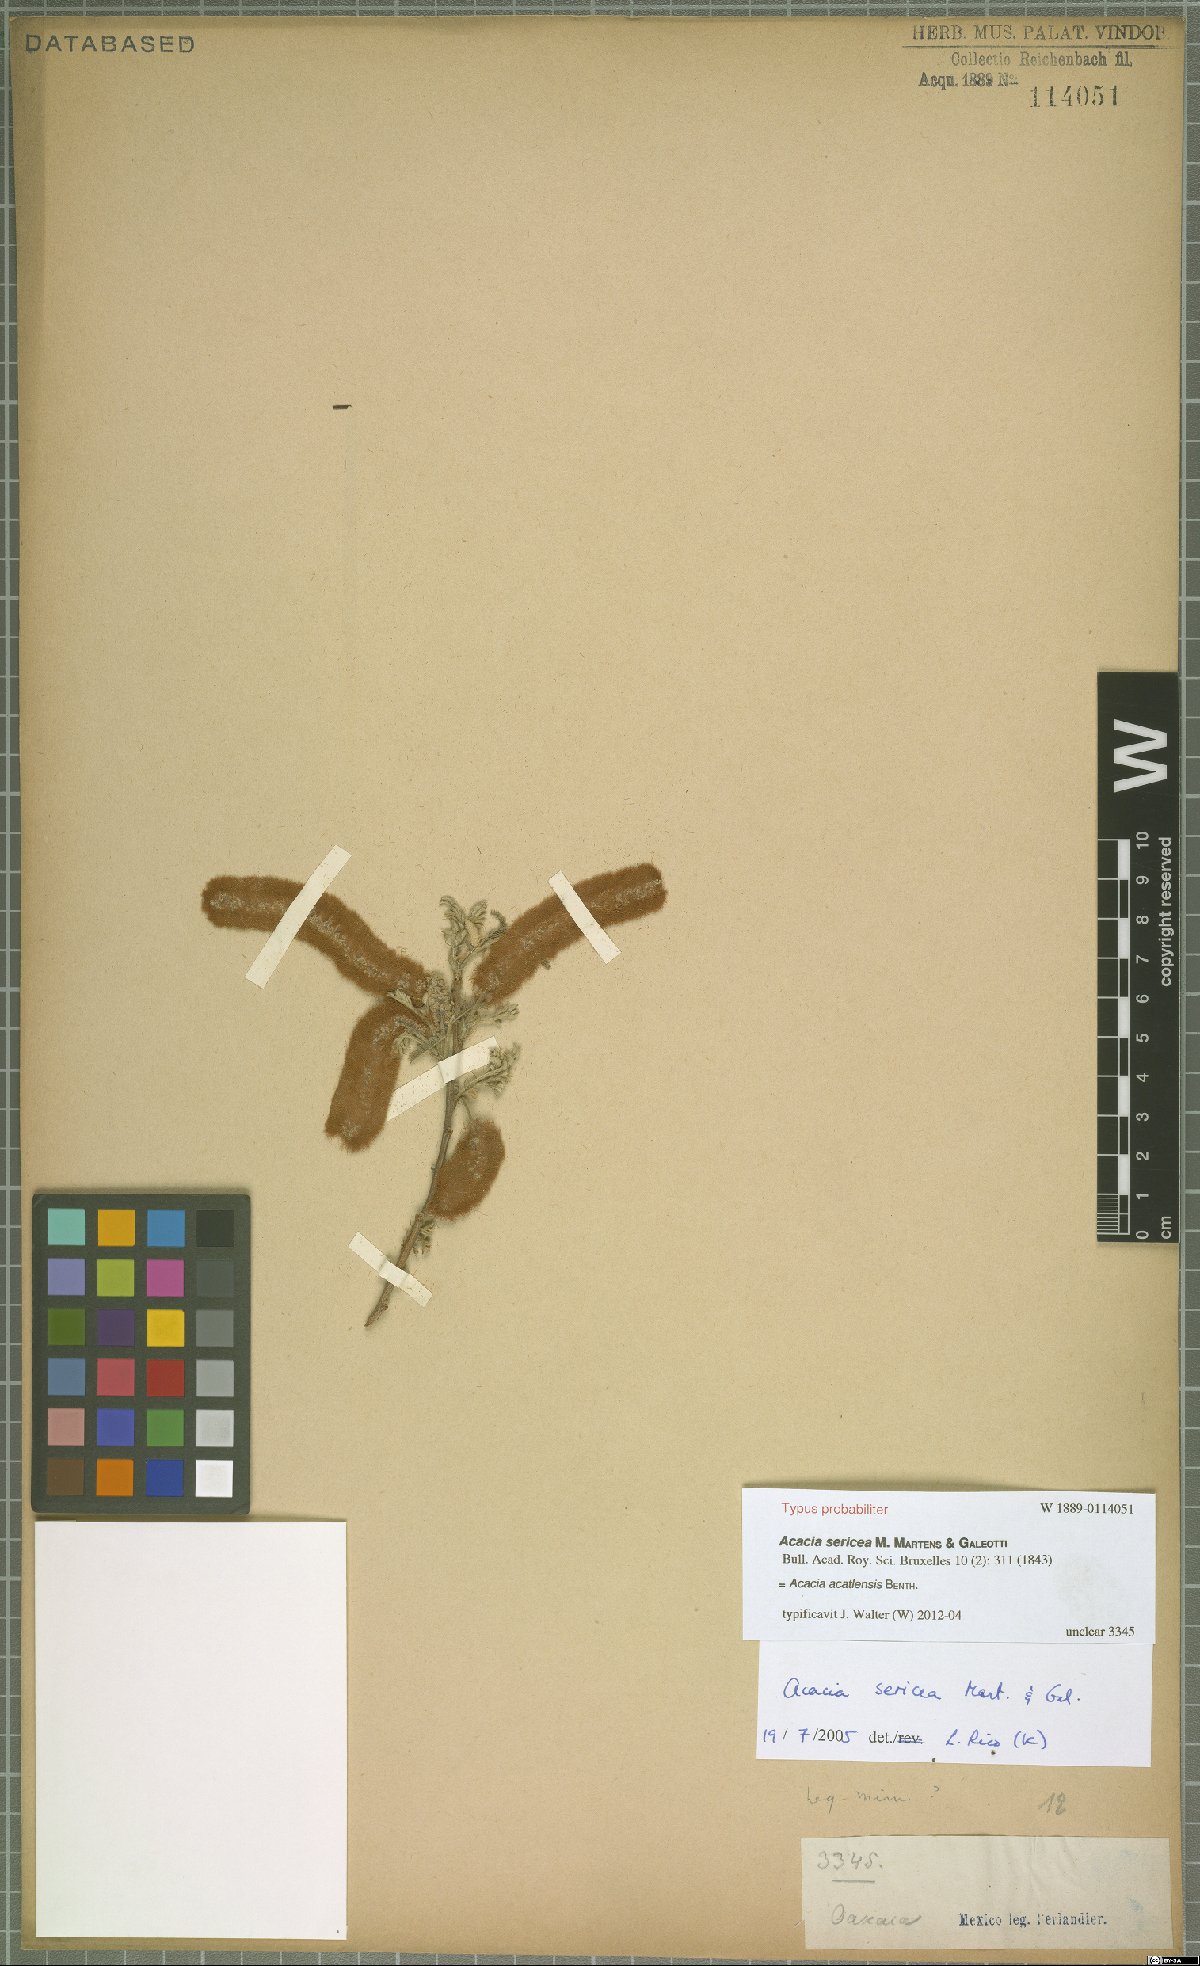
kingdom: Plantae
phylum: Tracheophyta
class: Magnoliopsida
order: Fabales
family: Fabaceae
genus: Mariosousa
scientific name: Mariosousa acatlensis
